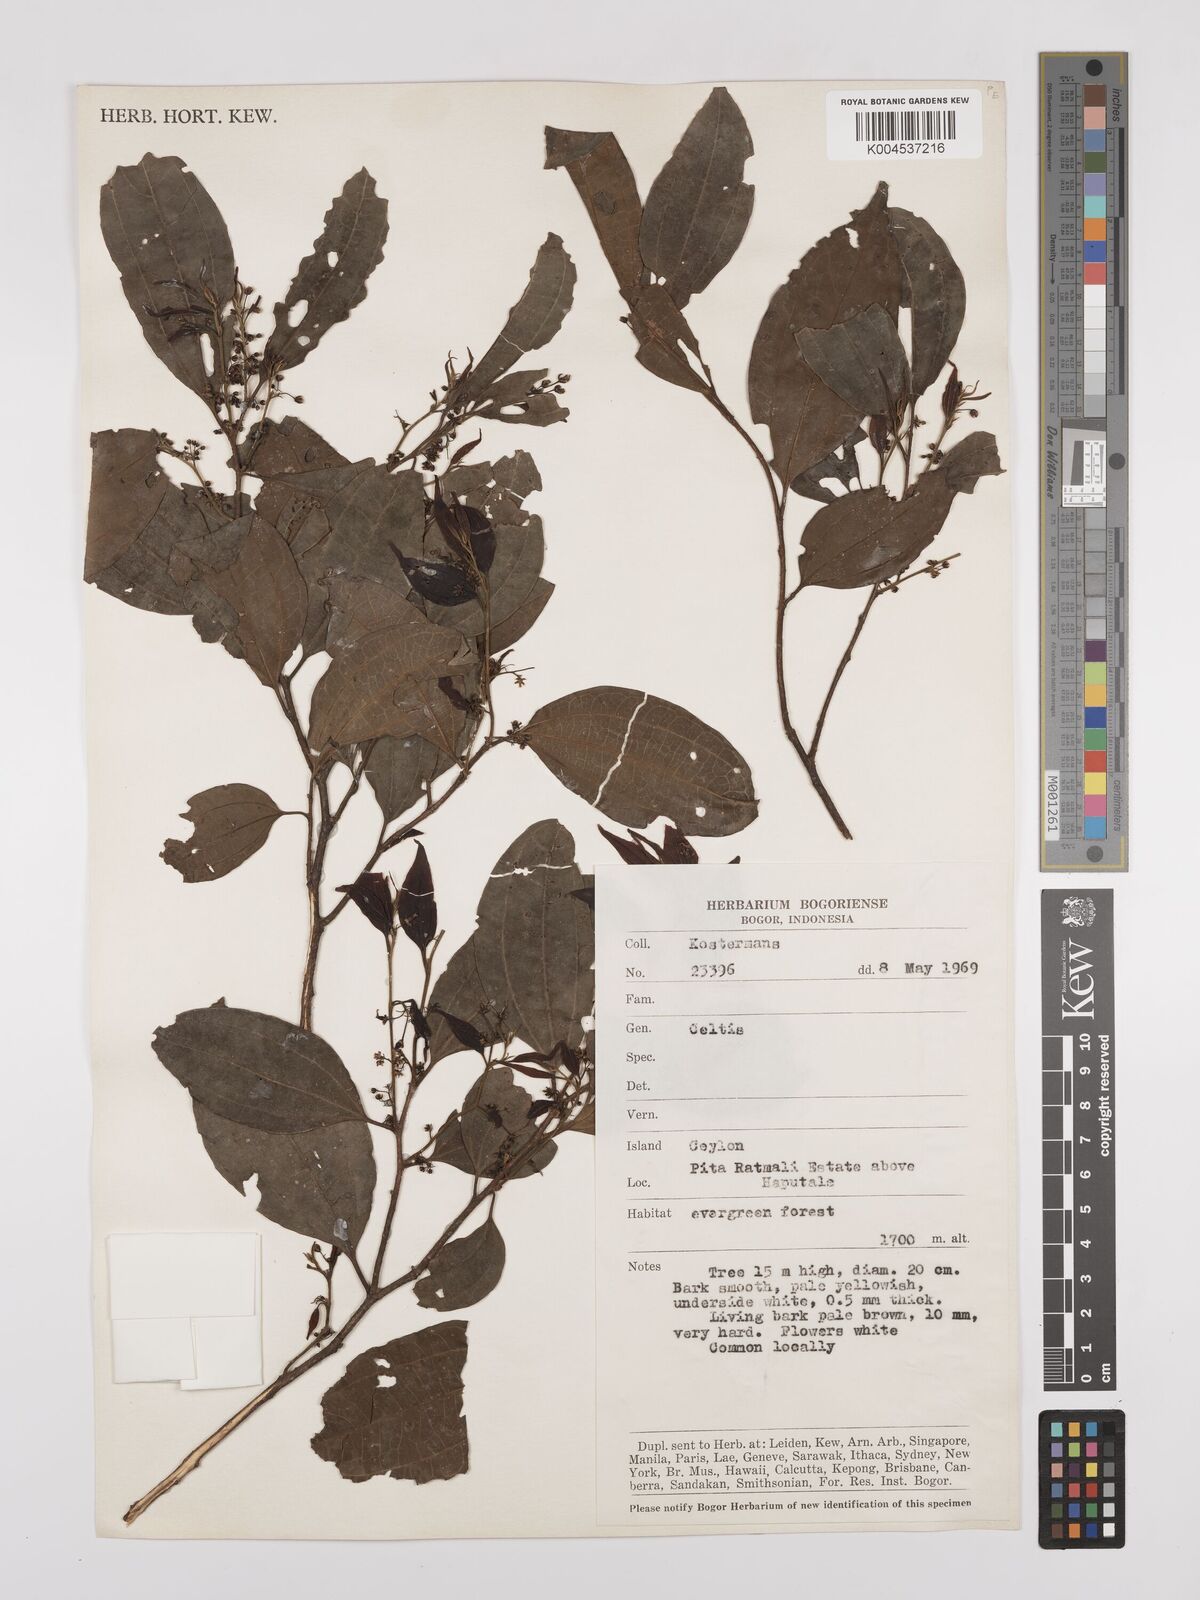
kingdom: Plantae
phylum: Tracheophyta
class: Magnoliopsida
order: Rosales
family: Cannabaceae
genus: Celtis
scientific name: Celtis timorensis
